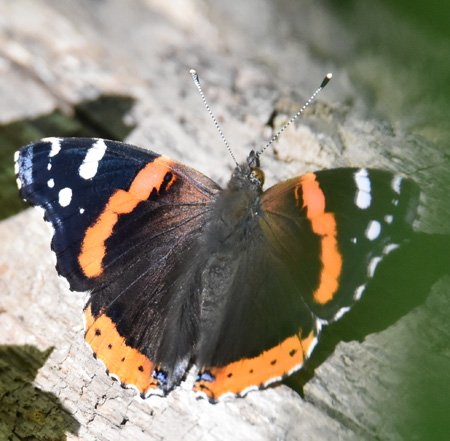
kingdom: Animalia
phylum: Arthropoda
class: Insecta
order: Lepidoptera
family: Nymphalidae
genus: Vanessa
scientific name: Vanessa atalanta
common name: Red Admiral
